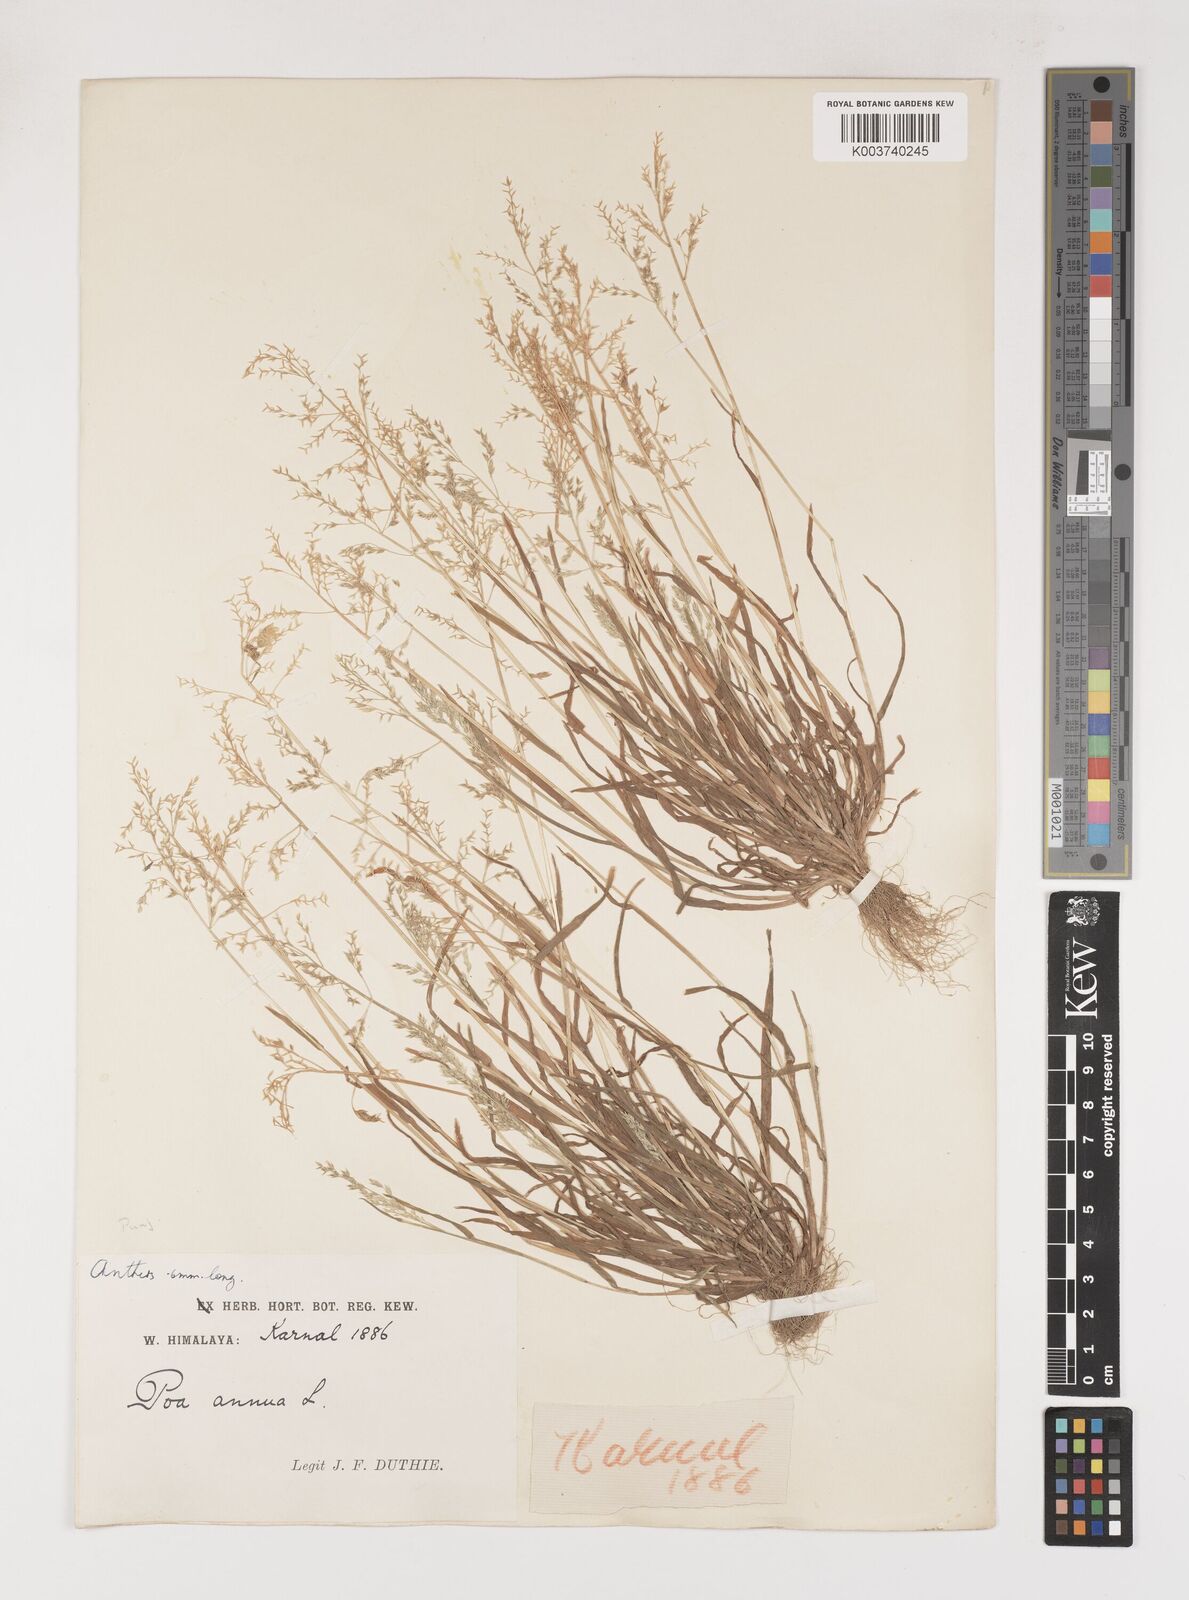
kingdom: Plantae
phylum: Tracheophyta
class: Liliopsida
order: Poales
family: Poaceae
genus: Poa
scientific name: Poa annua
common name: Annual bluegrass
